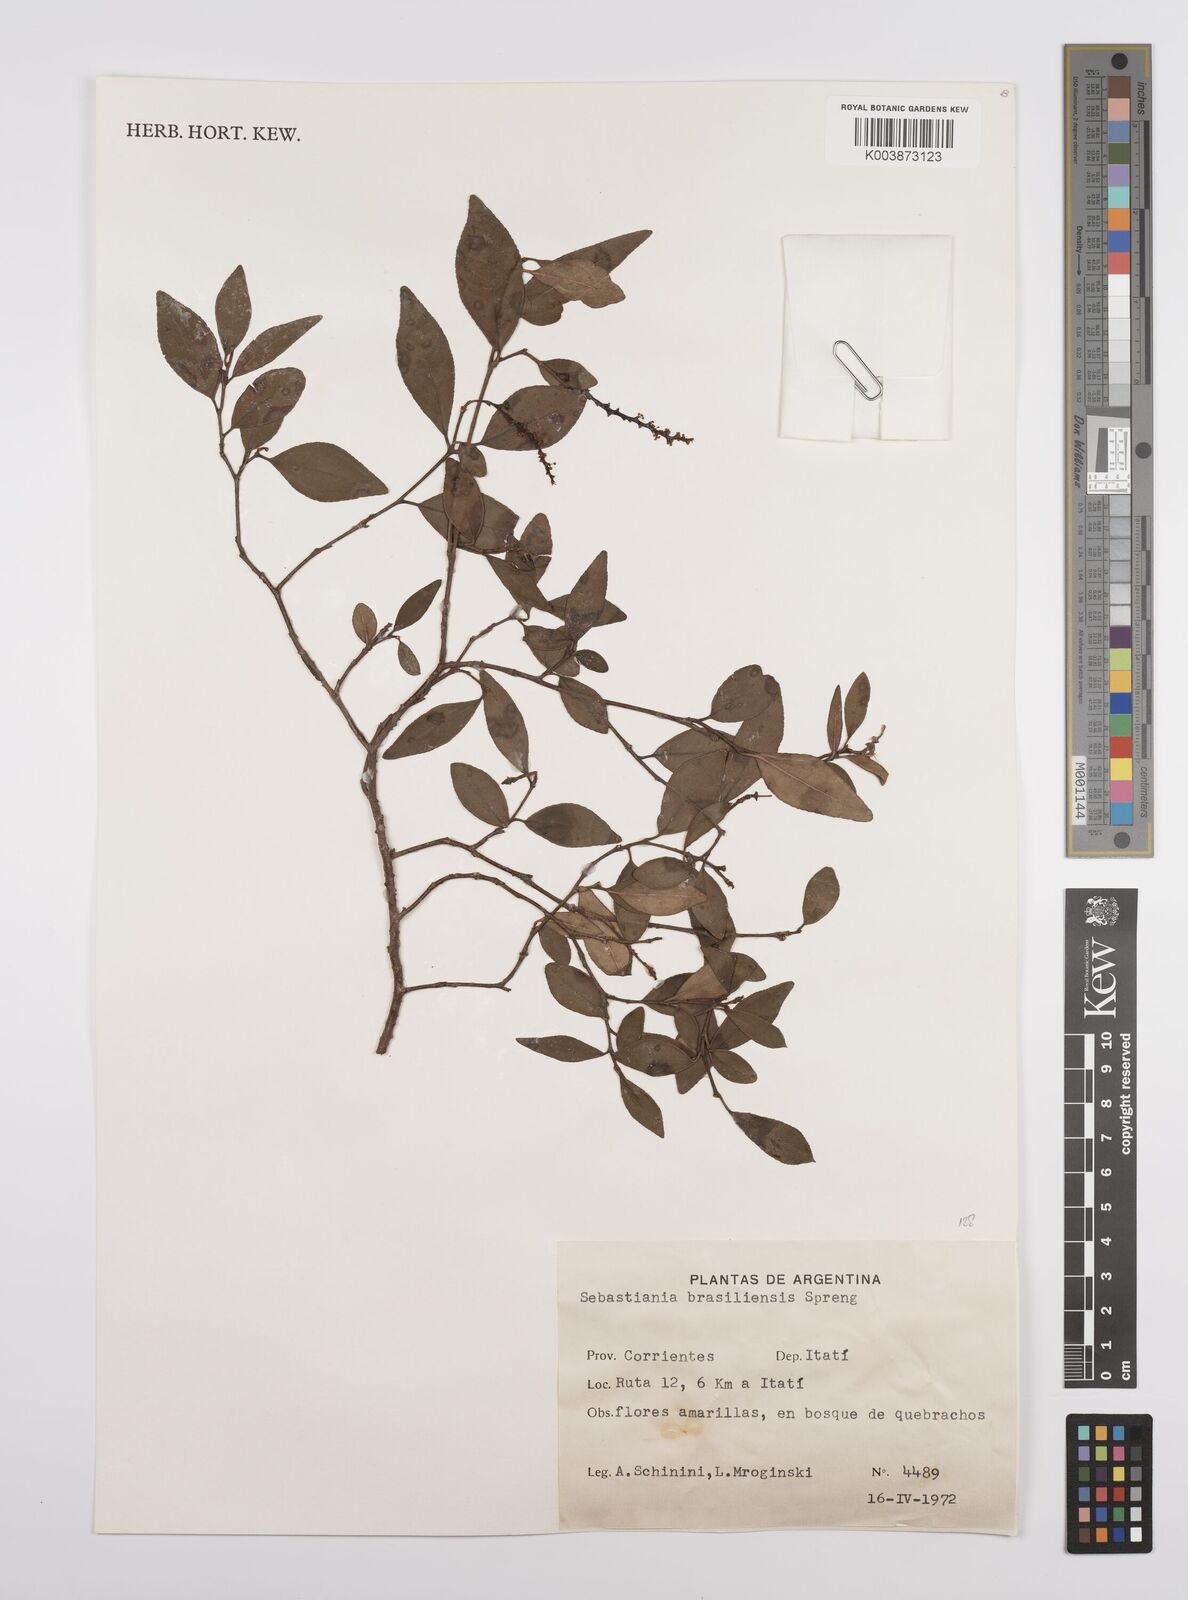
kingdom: Plantae
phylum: Tracheophyta
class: Magnoliopsida
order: Malpighiales
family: Euphorbiaceae
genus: Sebastiania
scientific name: Sebastiania brasiliensis
